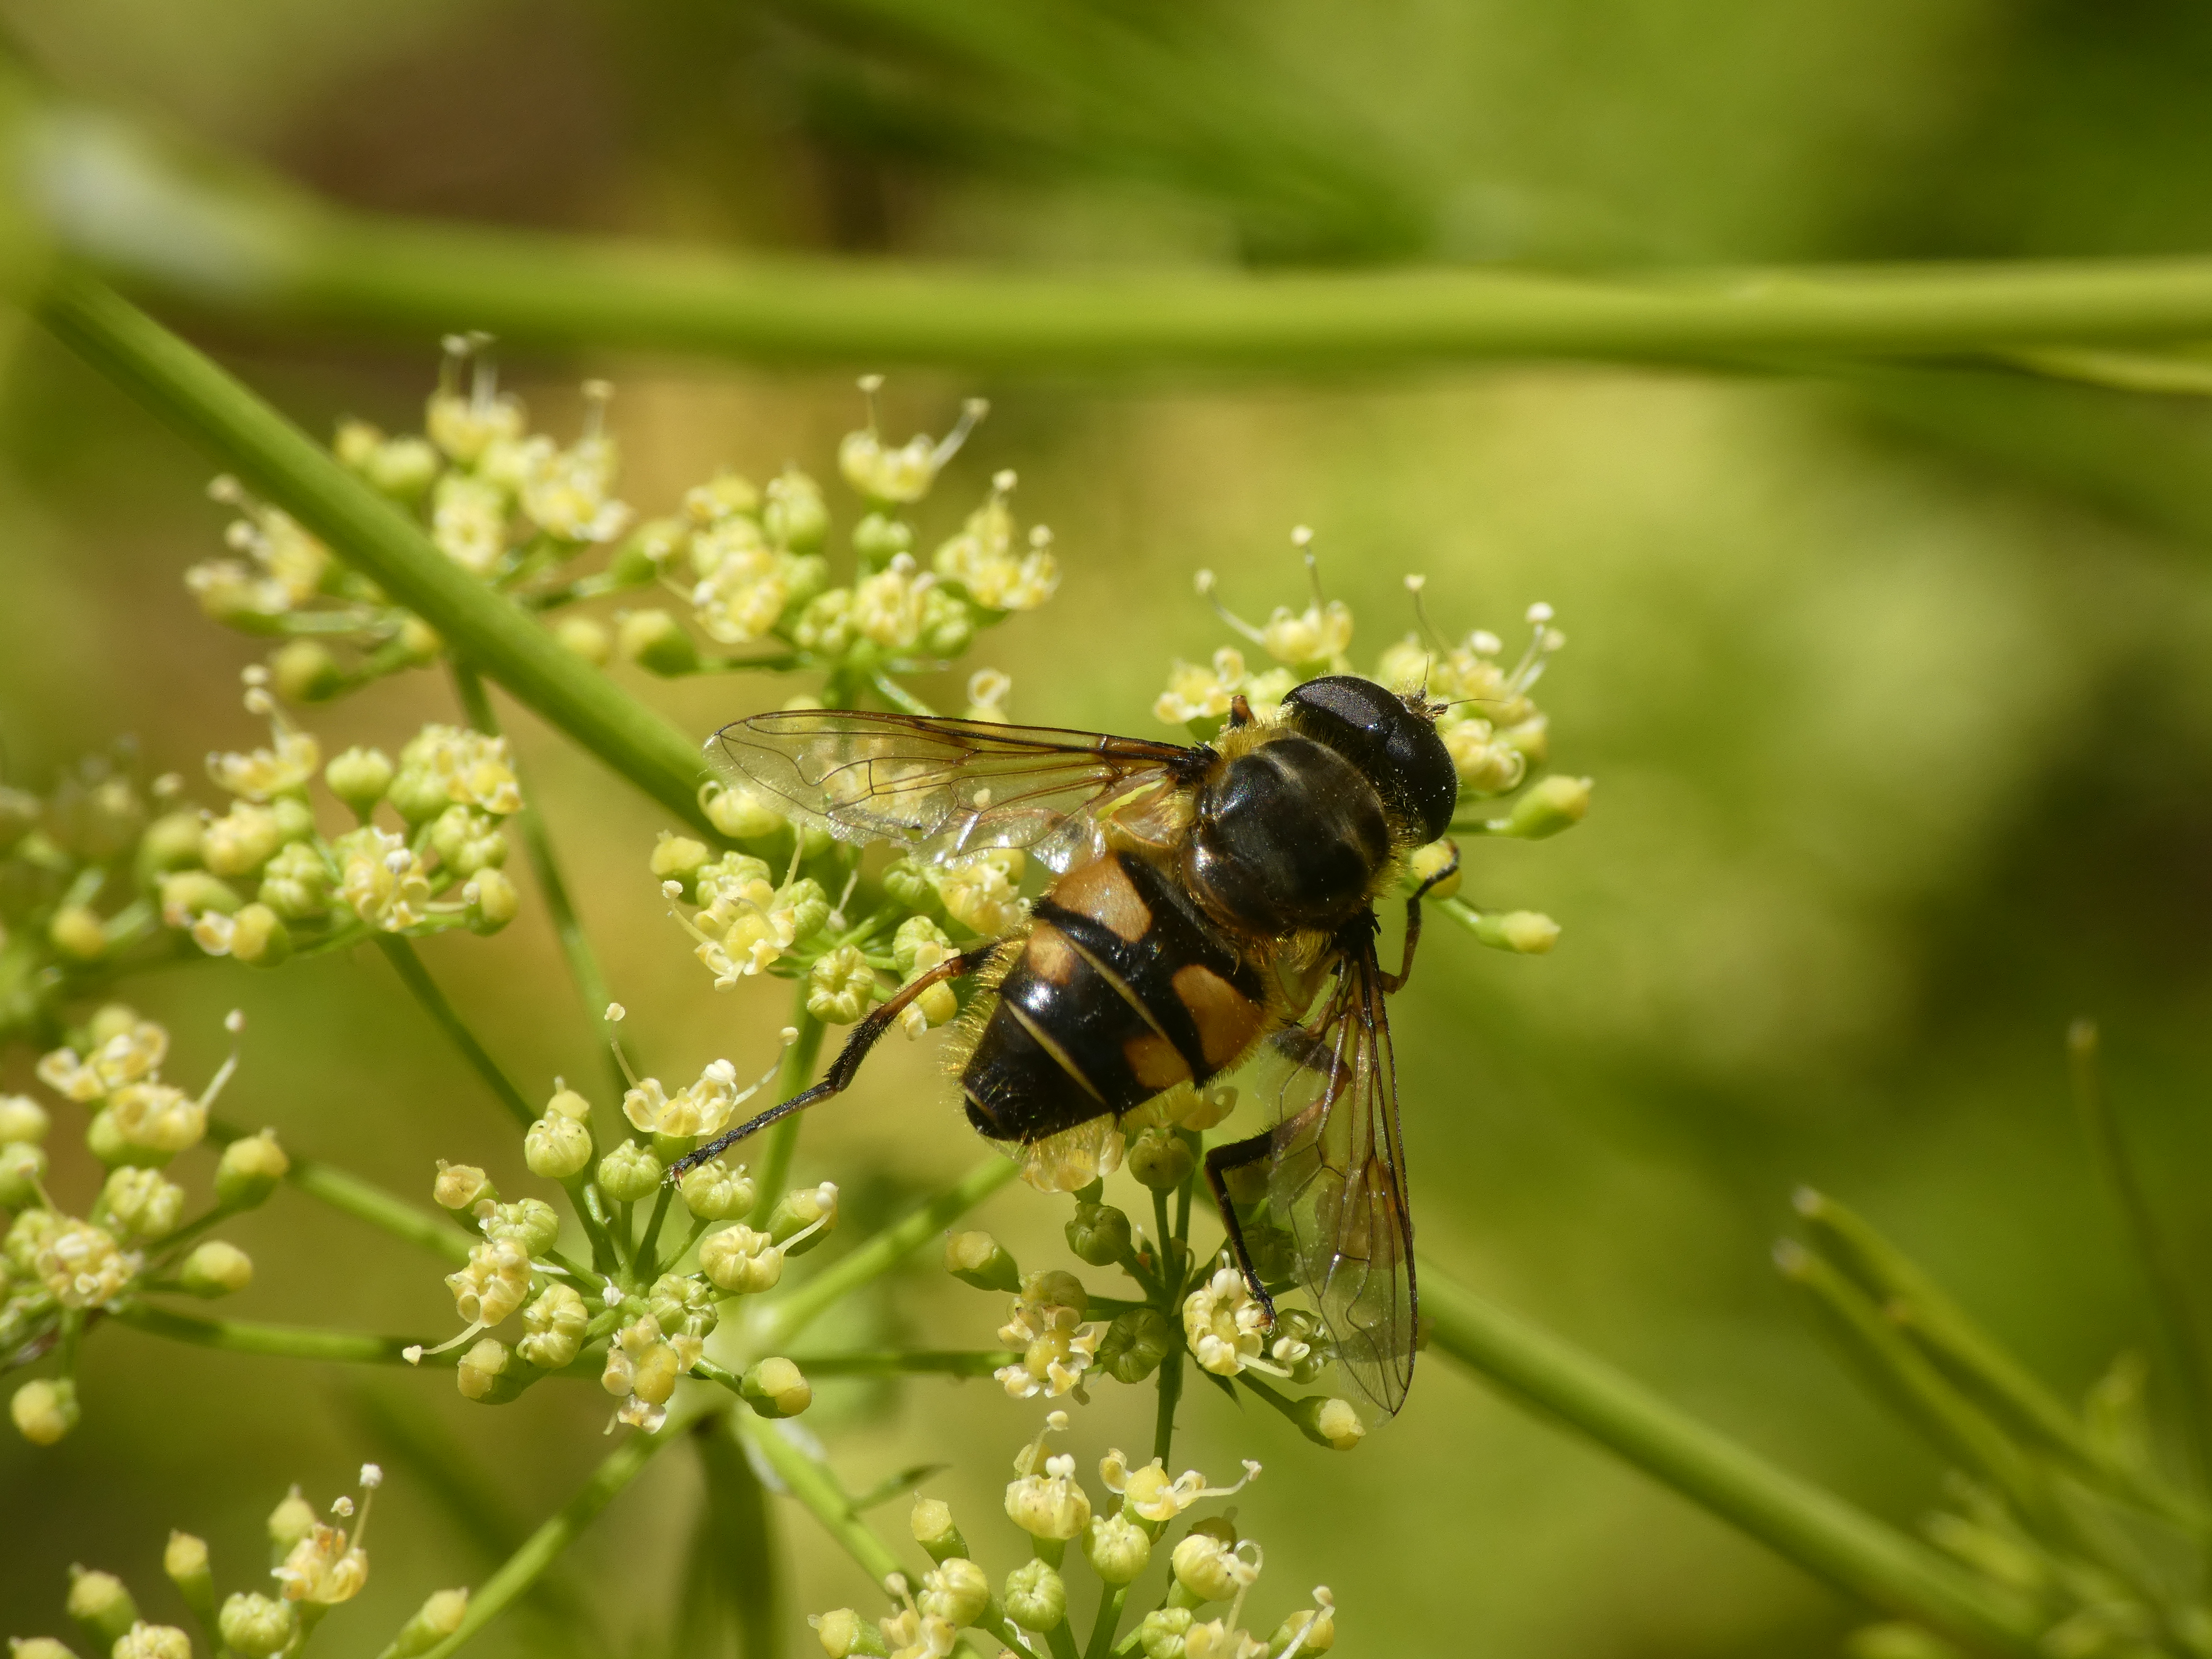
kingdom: Animalia
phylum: Arthropoda
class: Insecta
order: Diptera
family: Syrphidae
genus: Myathropa
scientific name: Myathropa florea
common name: Dødningehoved-svirreflue
